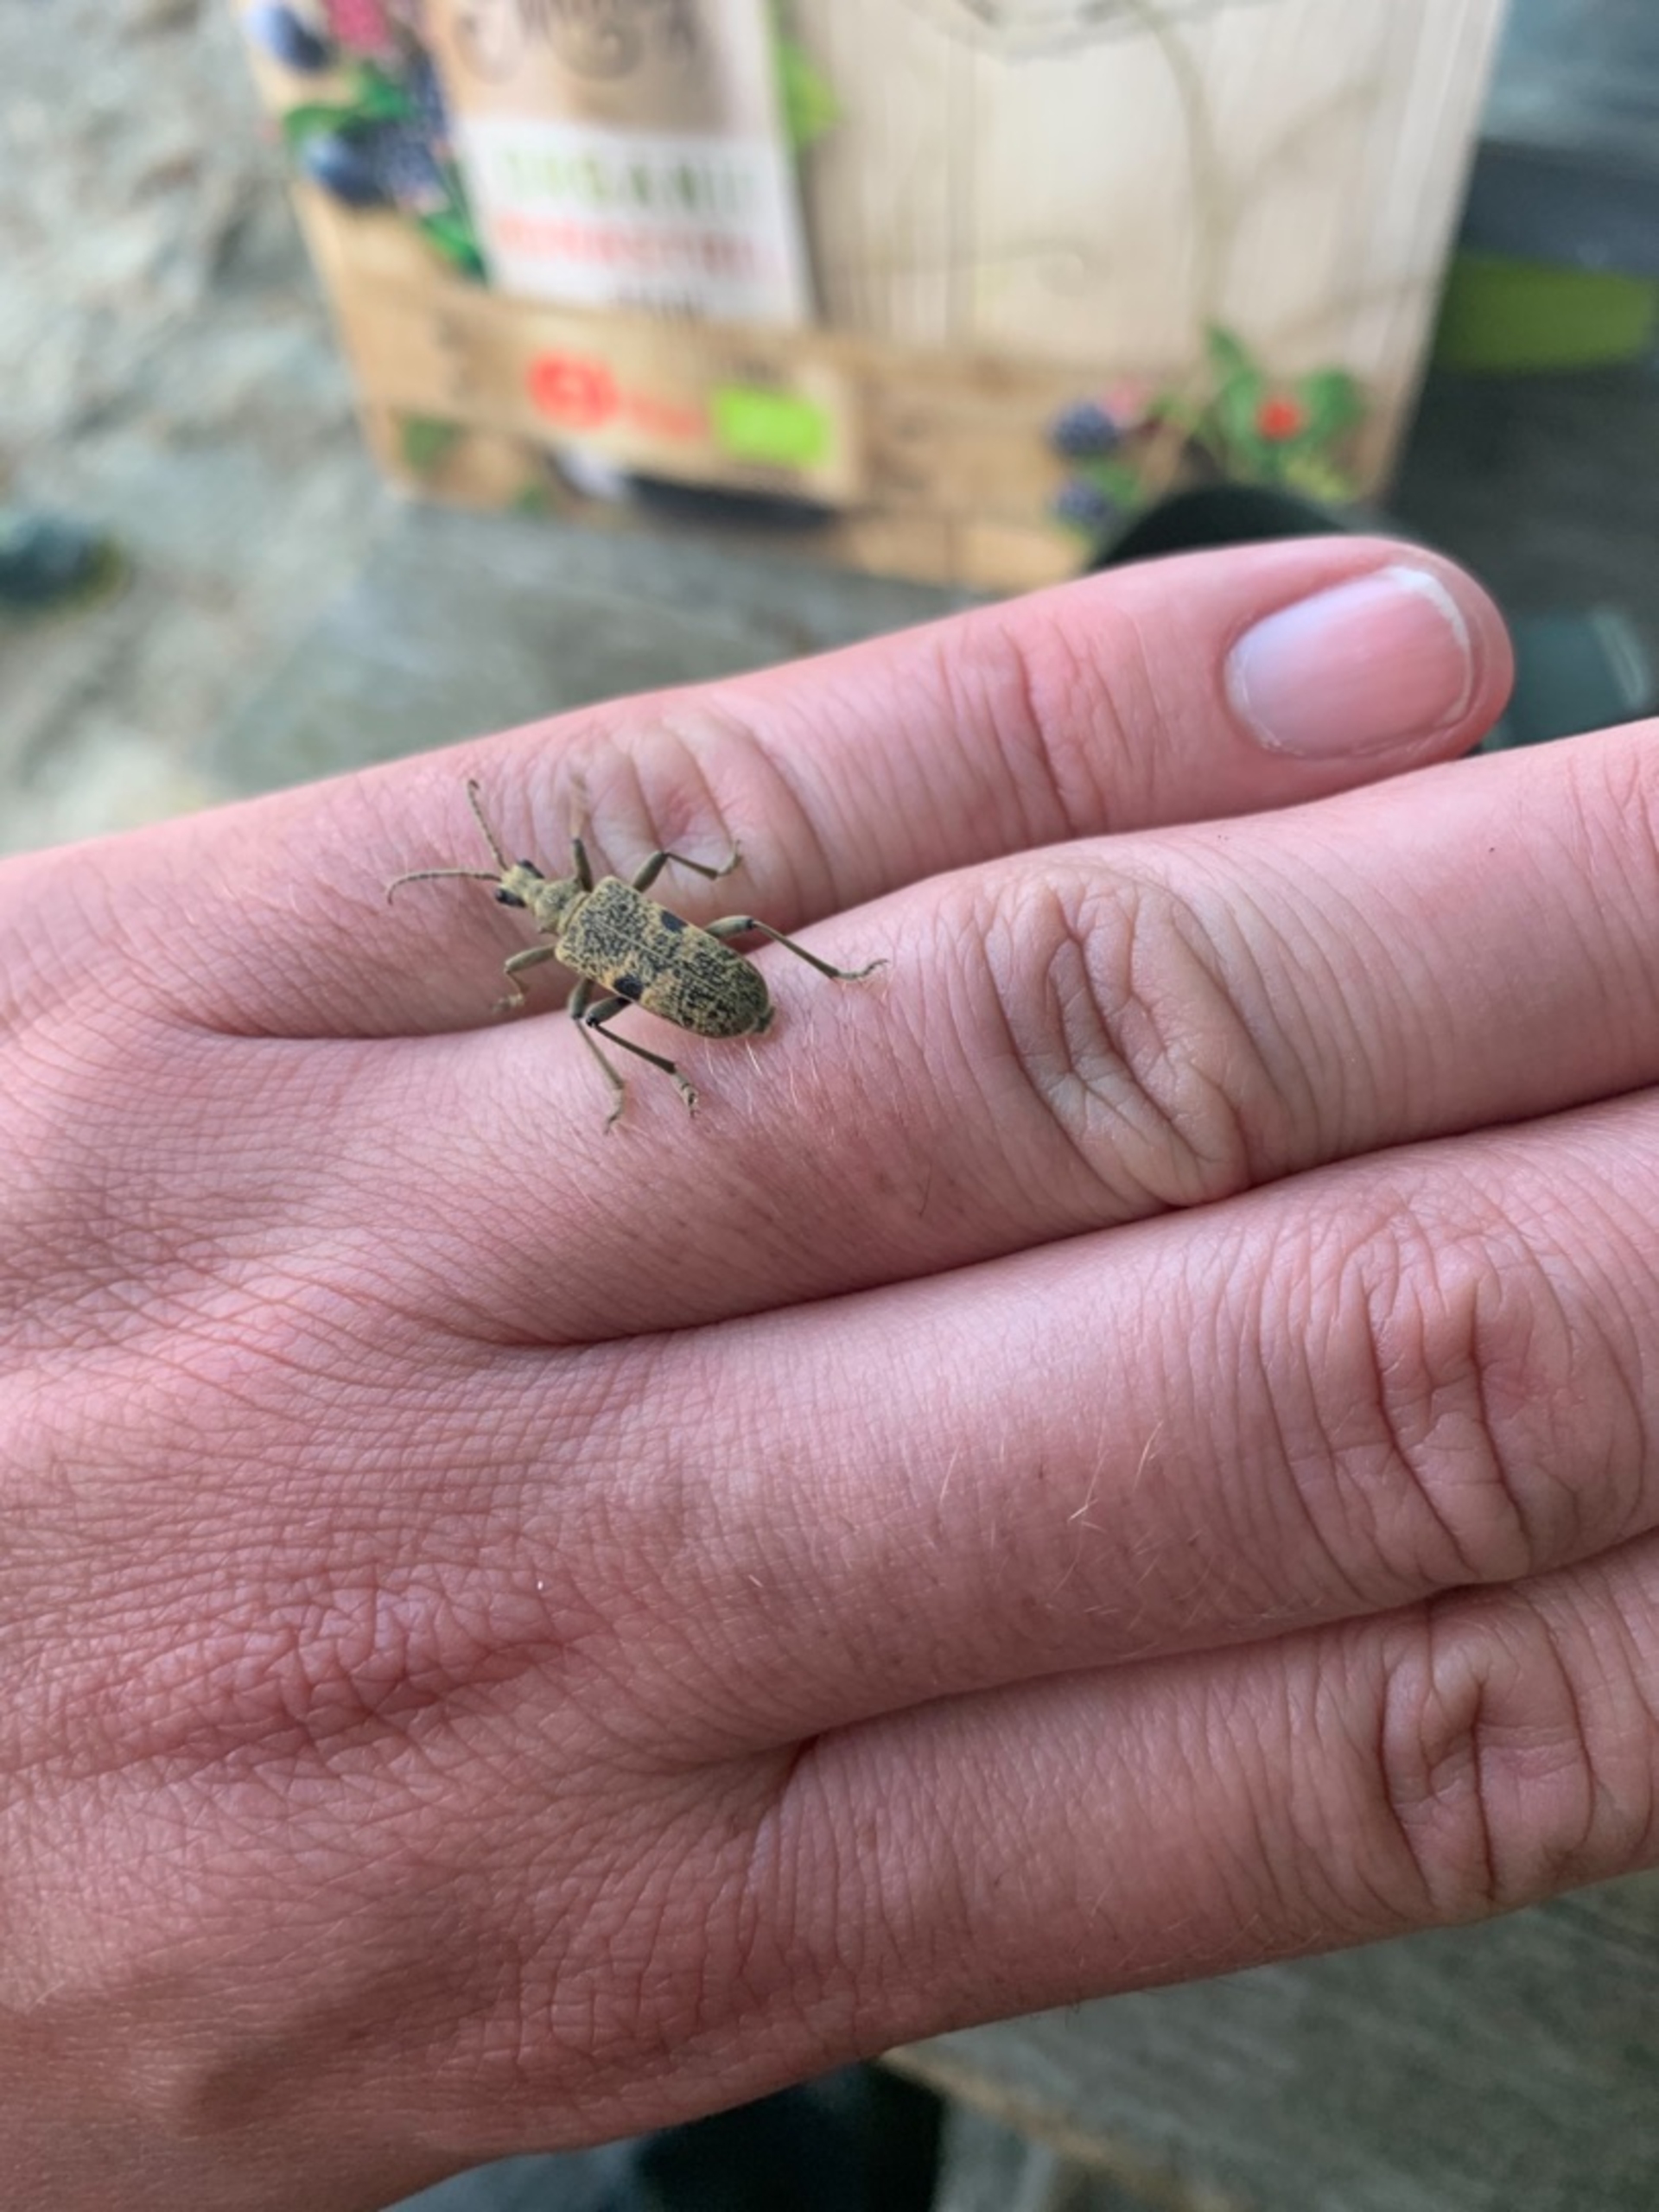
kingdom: Animalia
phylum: Arthropoda
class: Insecta
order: Coleoptera
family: Cerambycidae
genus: Rhagium
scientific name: Rhagium mordax
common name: Blankplettet tandbuk
